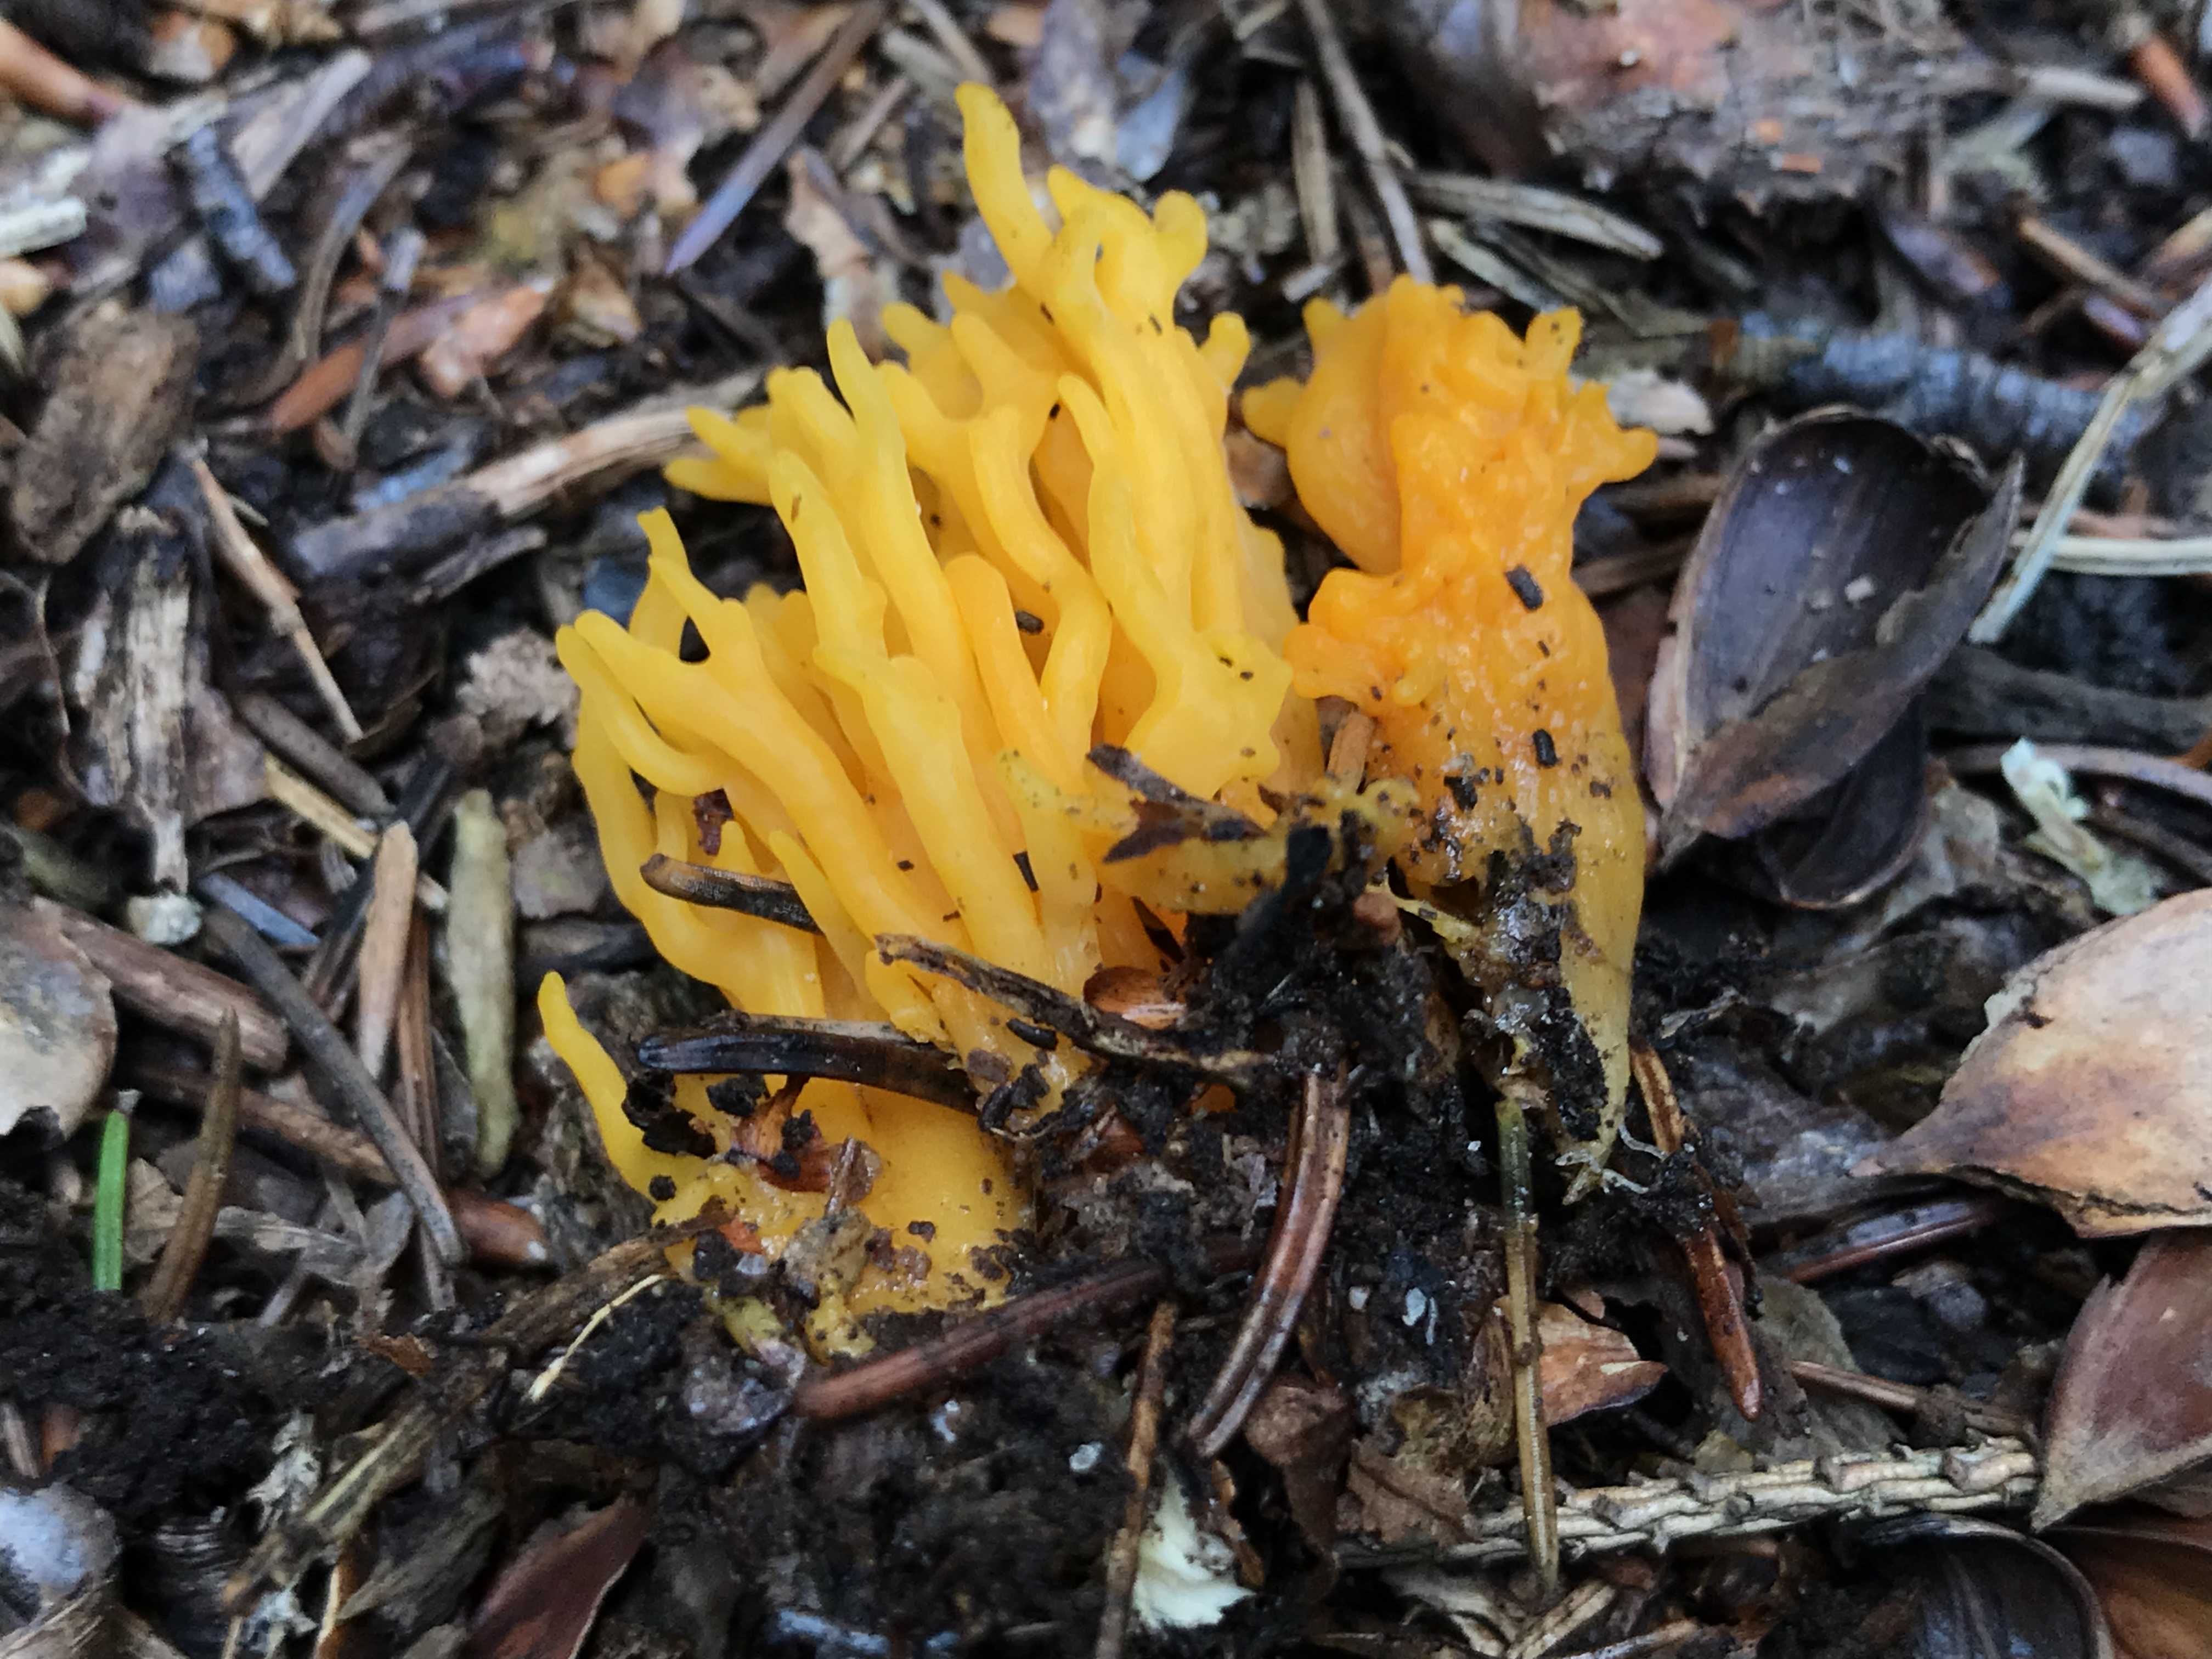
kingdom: Fungi
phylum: Basidiomycota
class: Dacrymycetes
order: Dacrymycetales
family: Dacrymycetaceae
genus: Calocera
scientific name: Calocera viscosa
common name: almindelig guldgaffel
